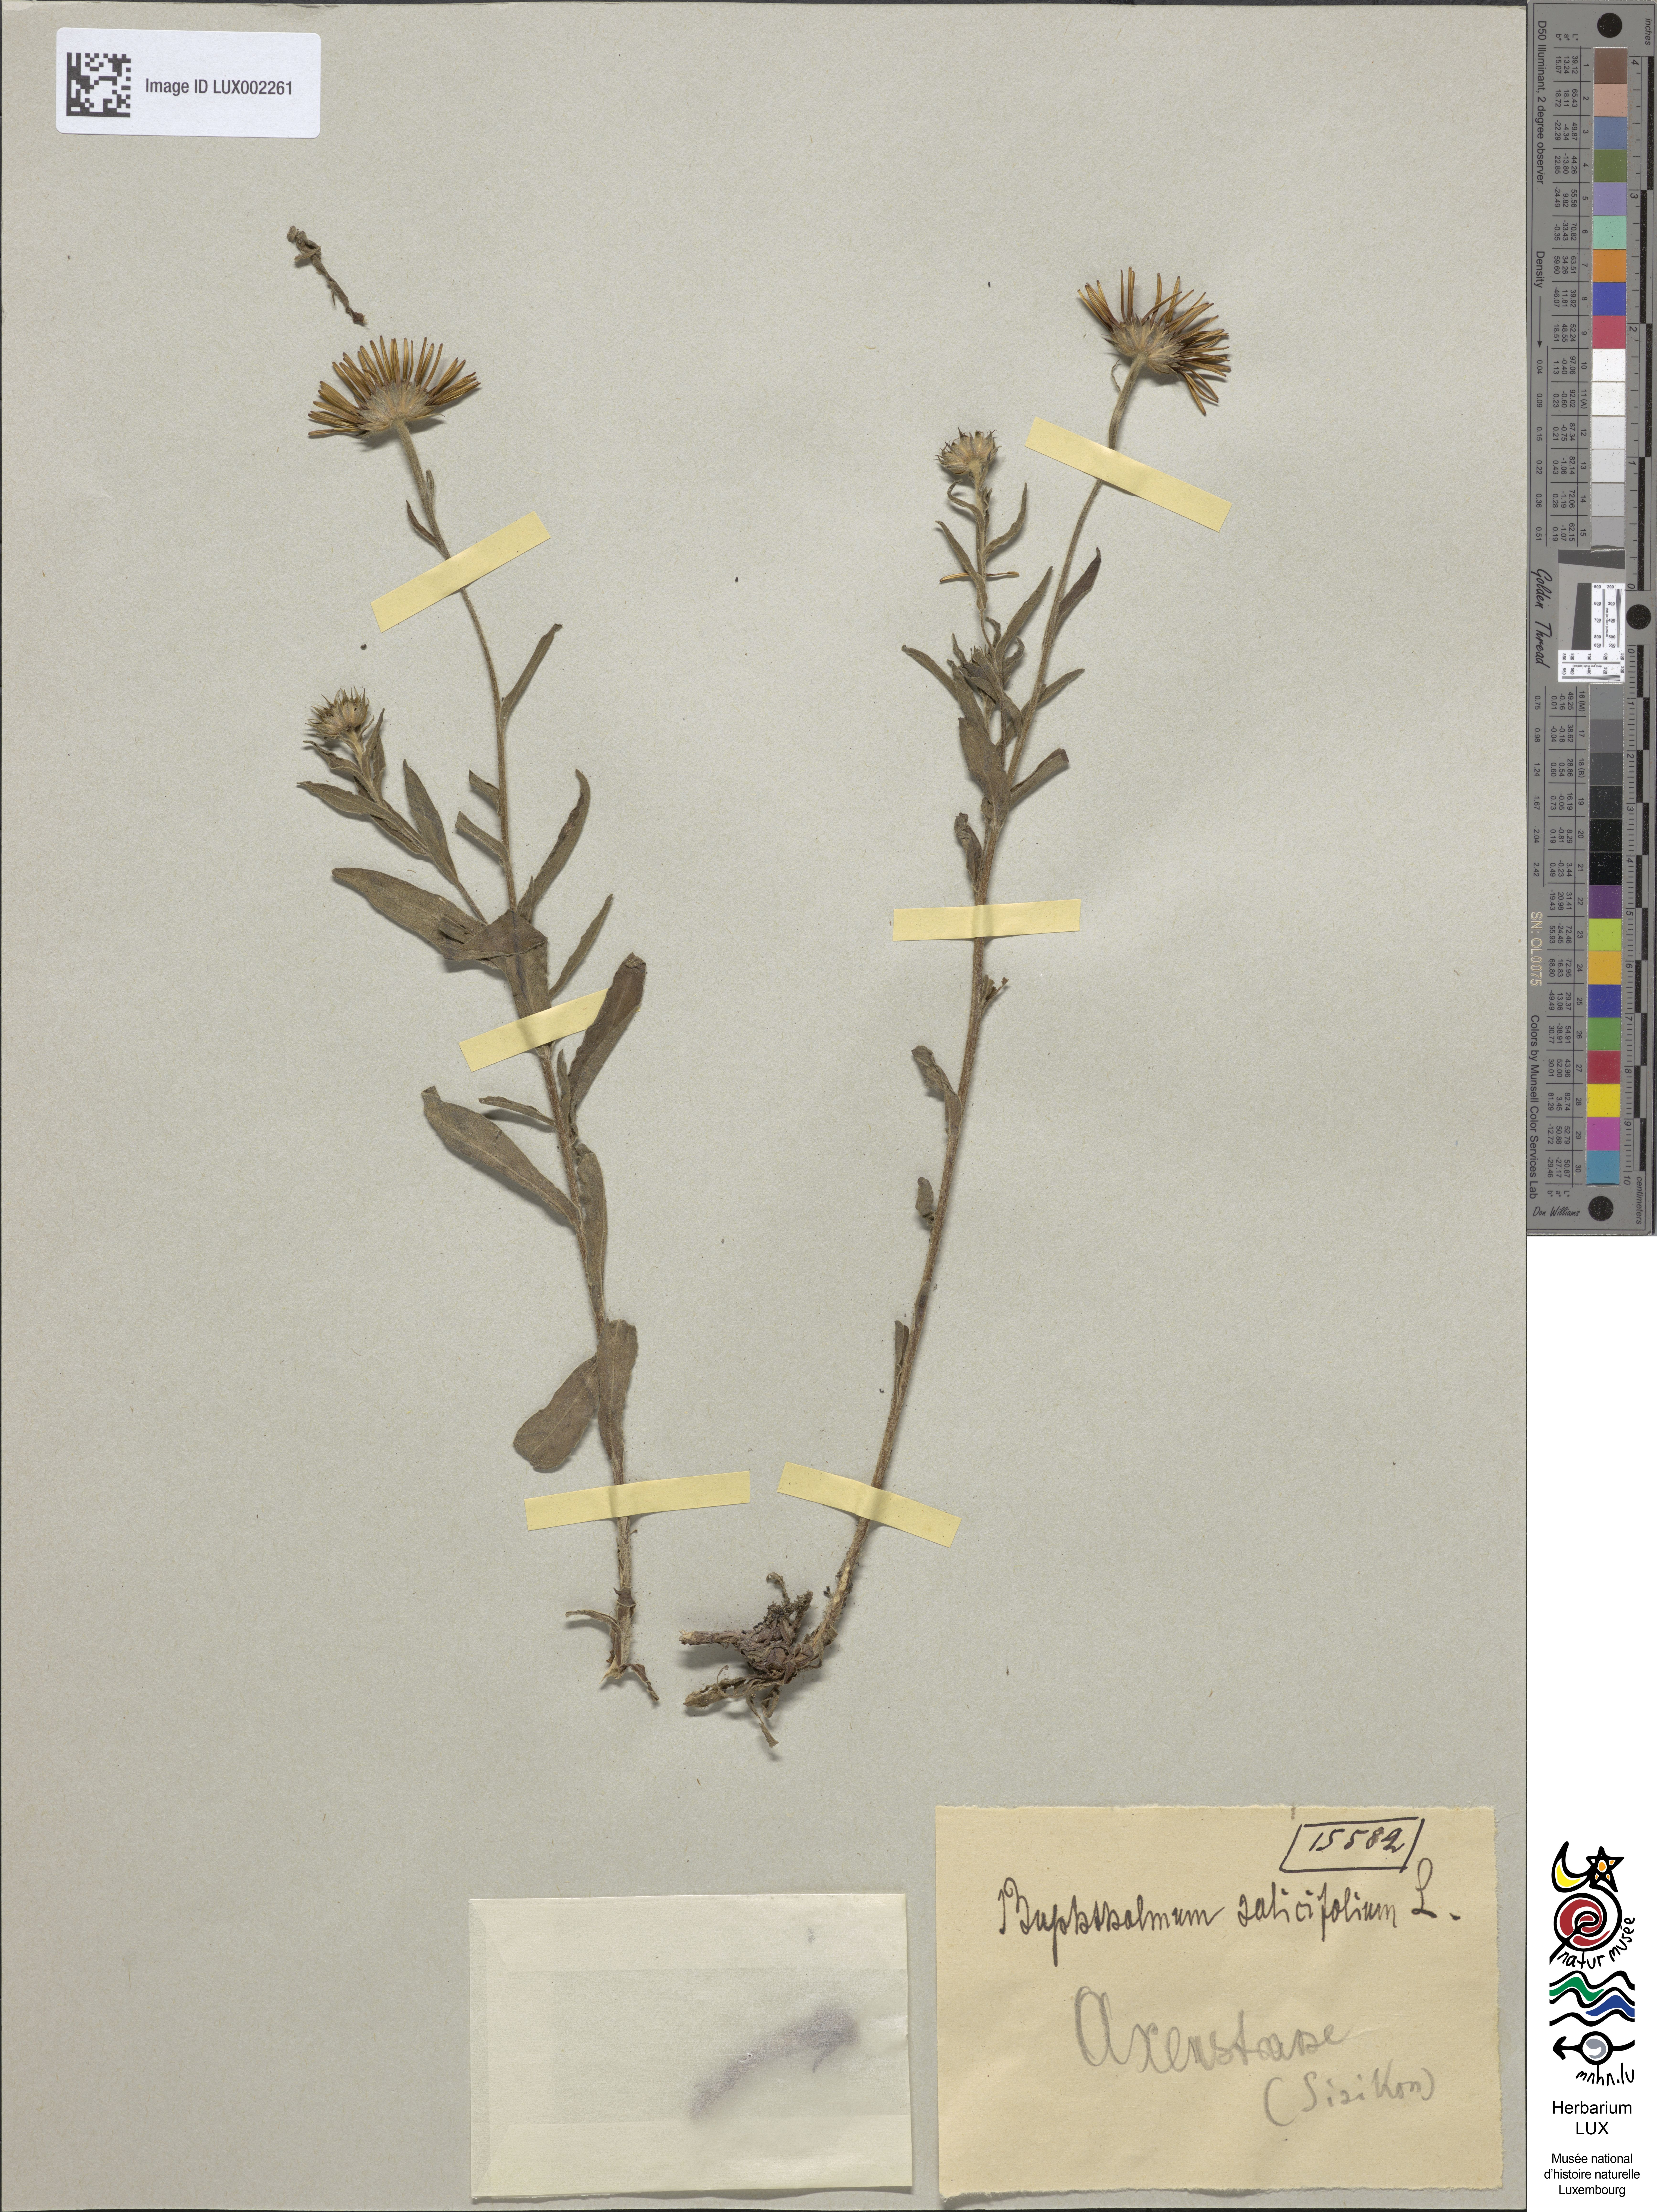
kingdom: Plantae
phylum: Tracheophyta
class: Magnoliopsida
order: Asterales
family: Asteraceae
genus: Buphthalmum
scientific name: Buphthalmum salicifolium
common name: Willow-leaved yellow-oxeye
